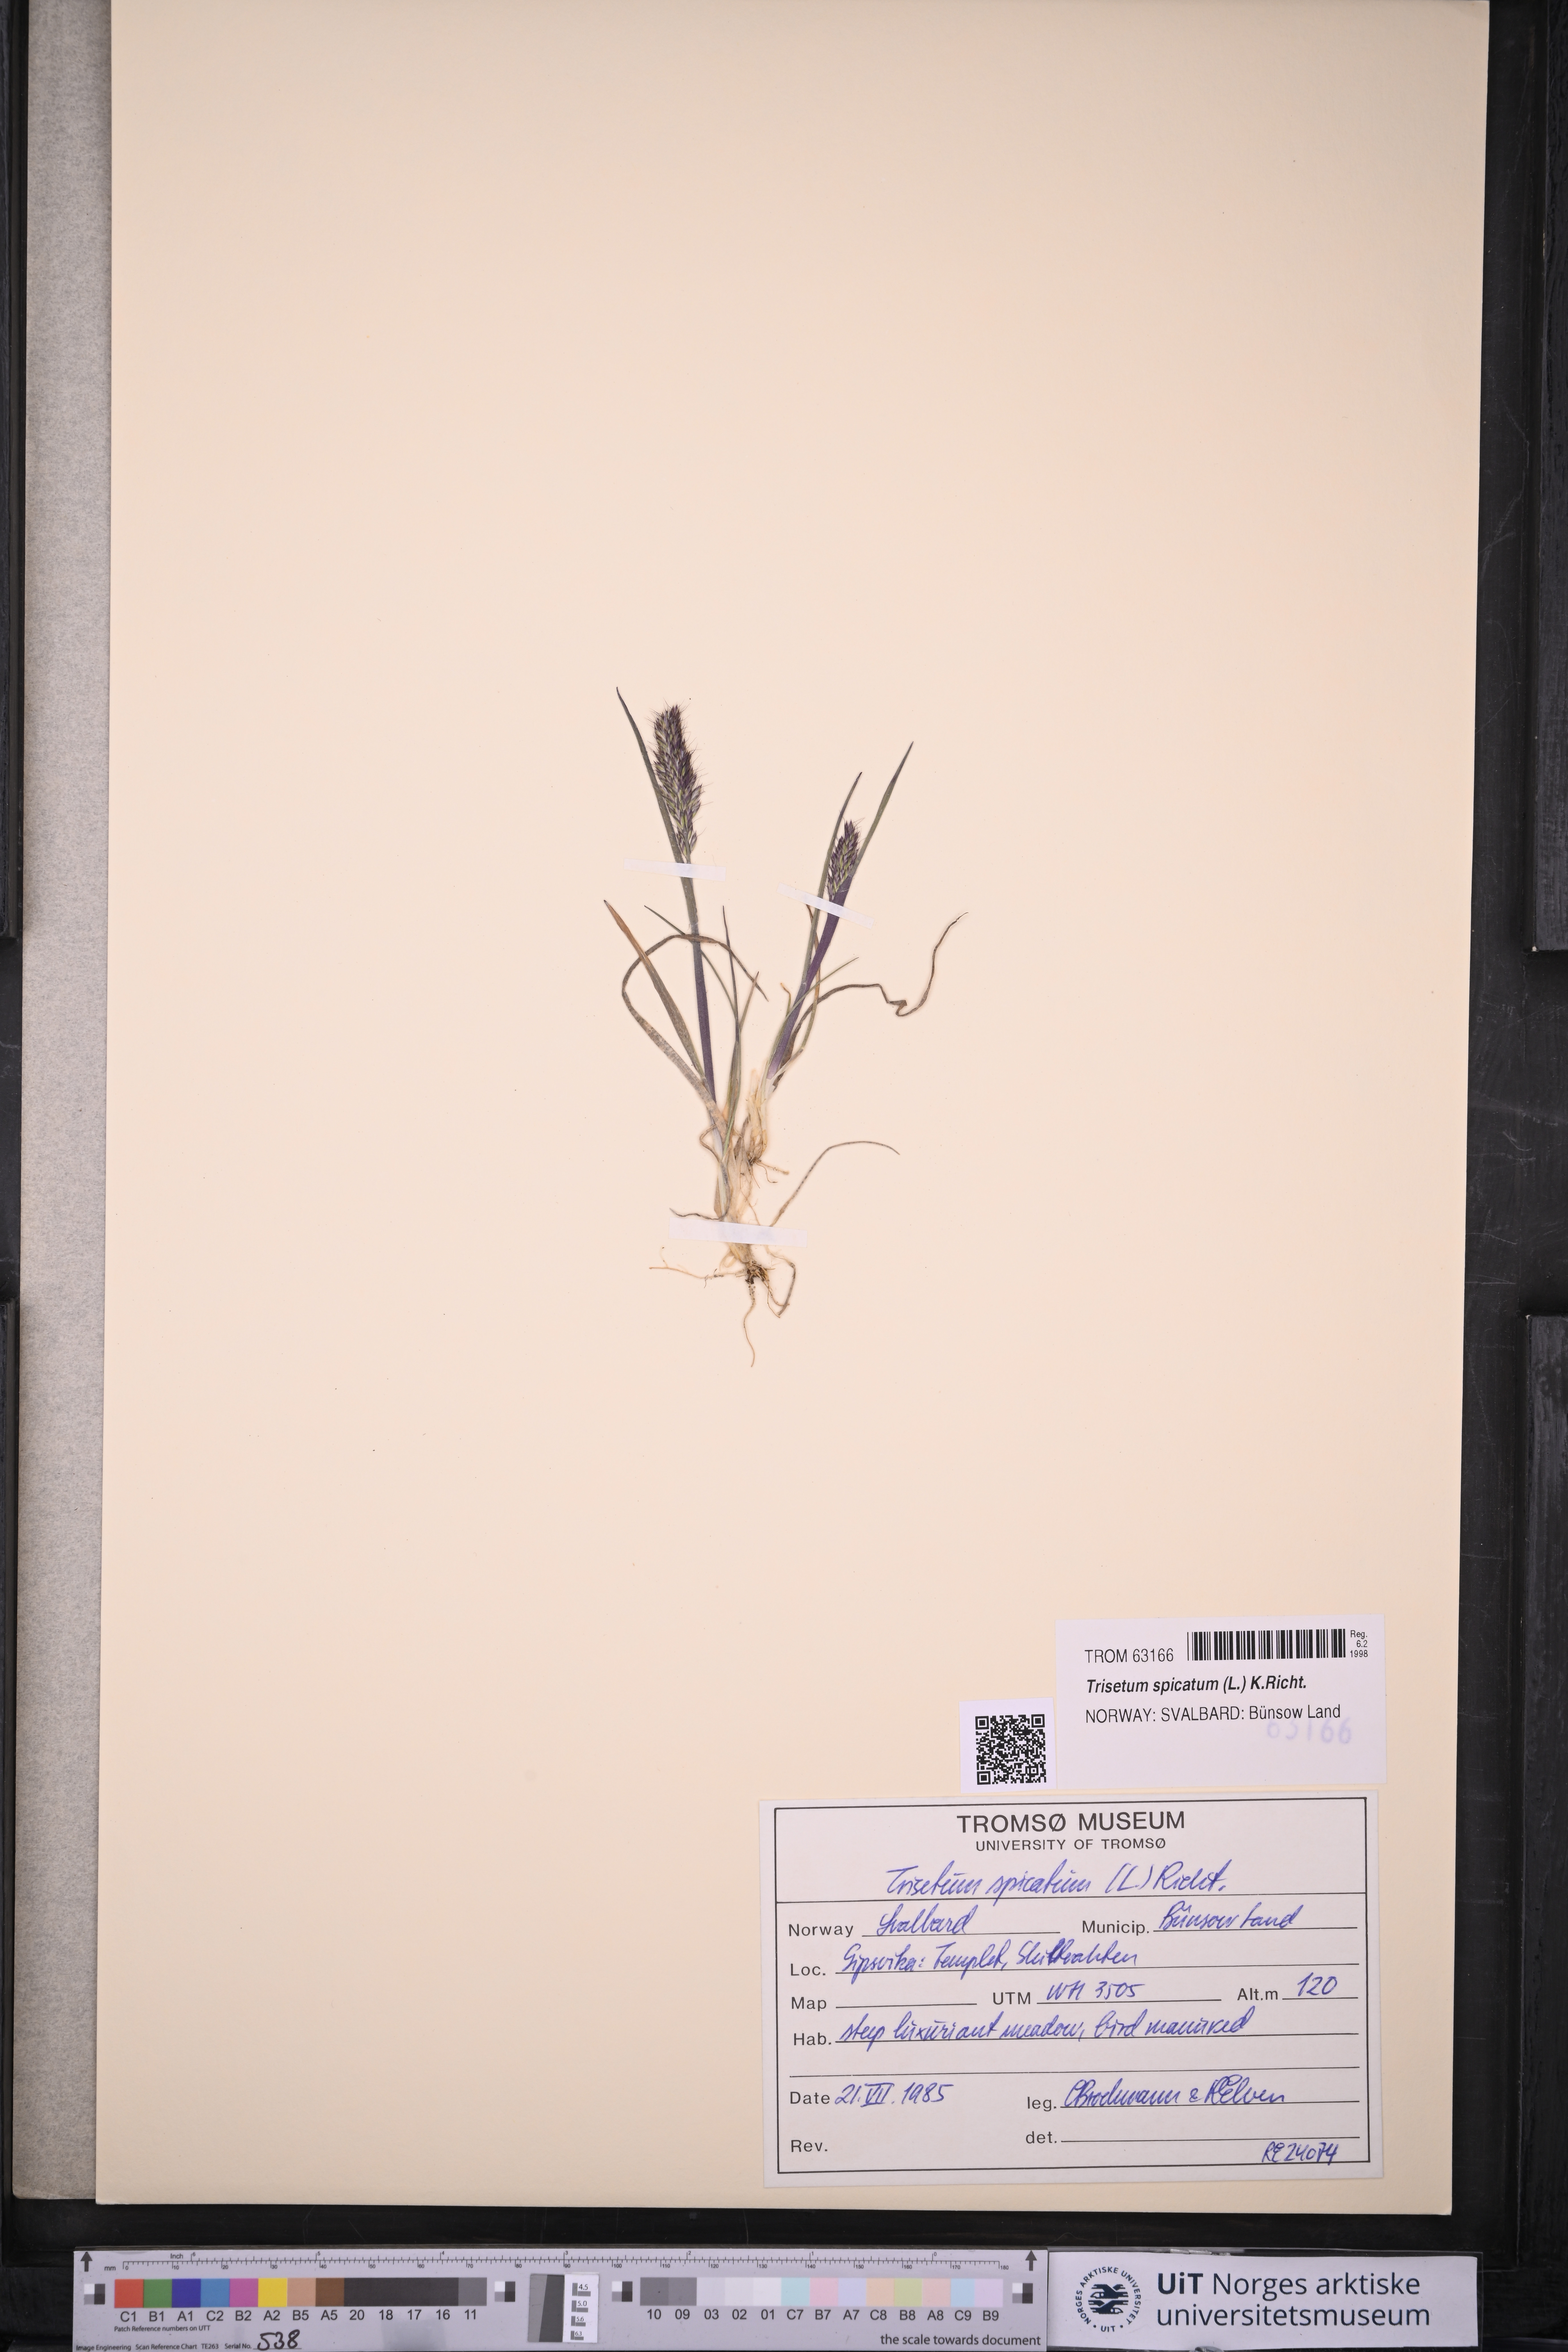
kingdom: Plantae
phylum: Tracheophyta
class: Liliopsida
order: Poales
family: Poaceae
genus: Koeleria
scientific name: Koeleria spicata
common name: Mountain trisetum
